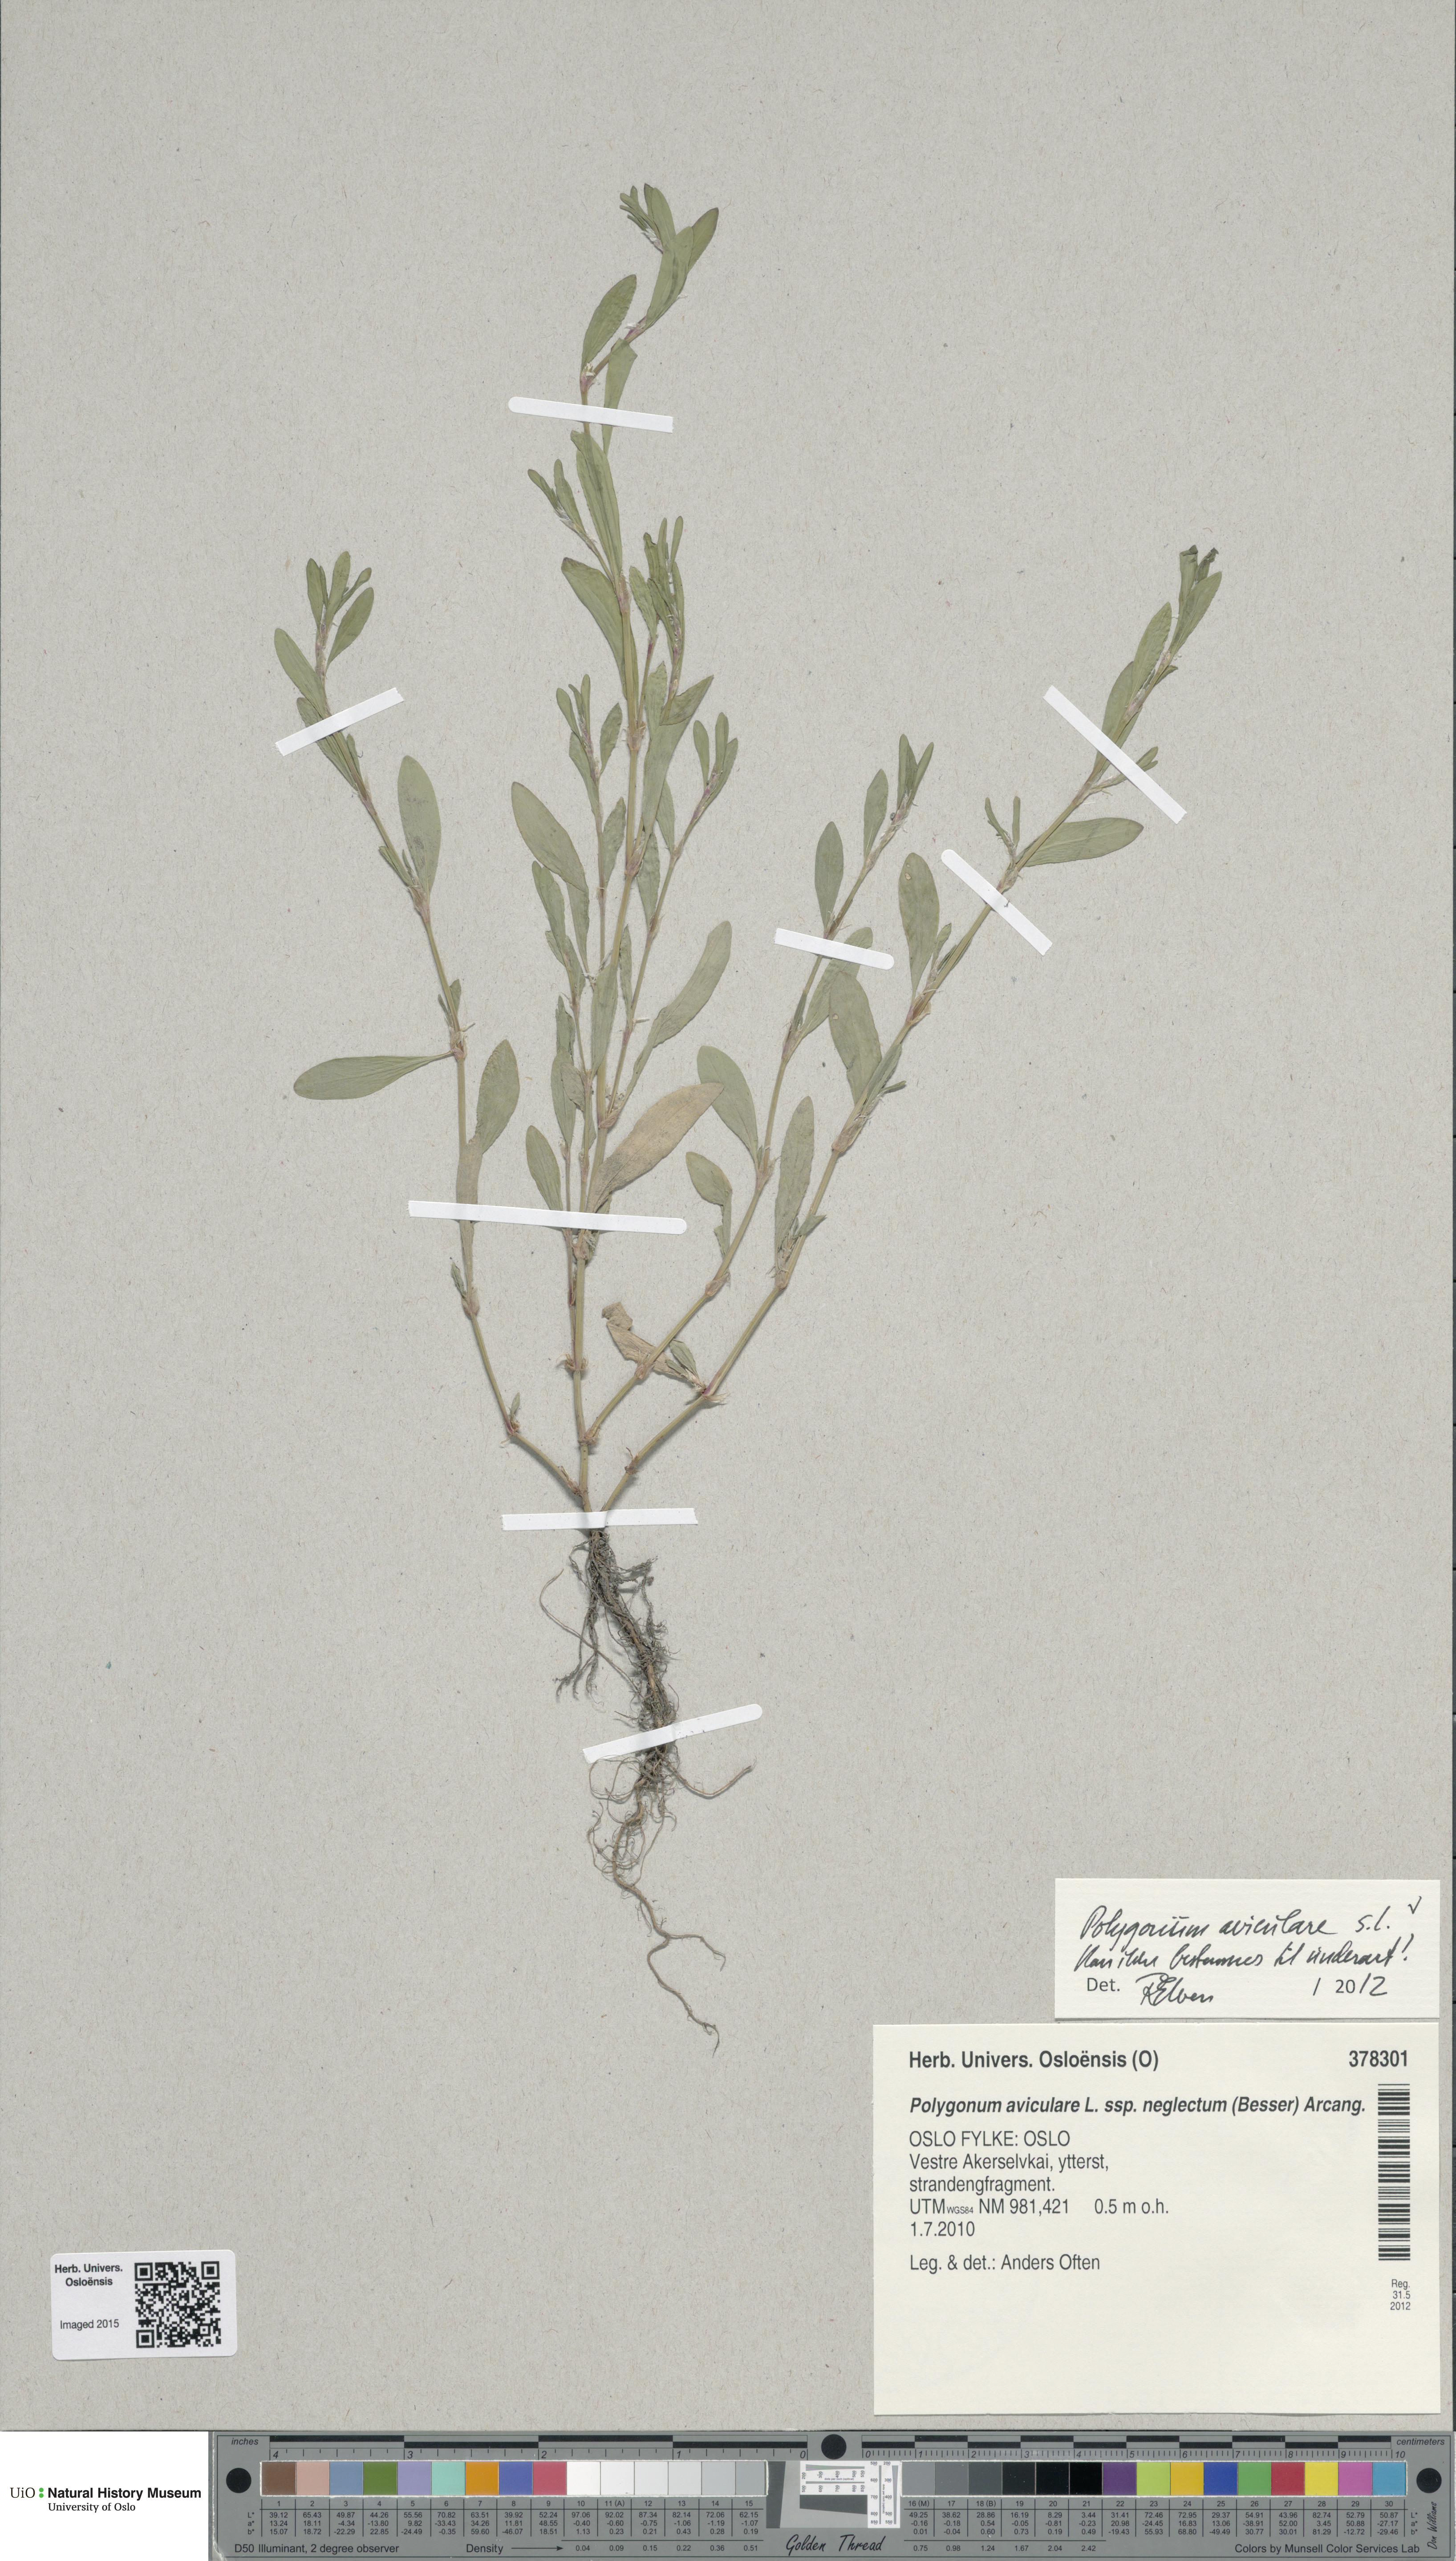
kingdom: Plantae
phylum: Tracheophyta
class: Magnoliopsida
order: Caryophyllales
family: Polygonaceae
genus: Polygonum
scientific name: Polygonum aviculare
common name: Prostrate knotweed
